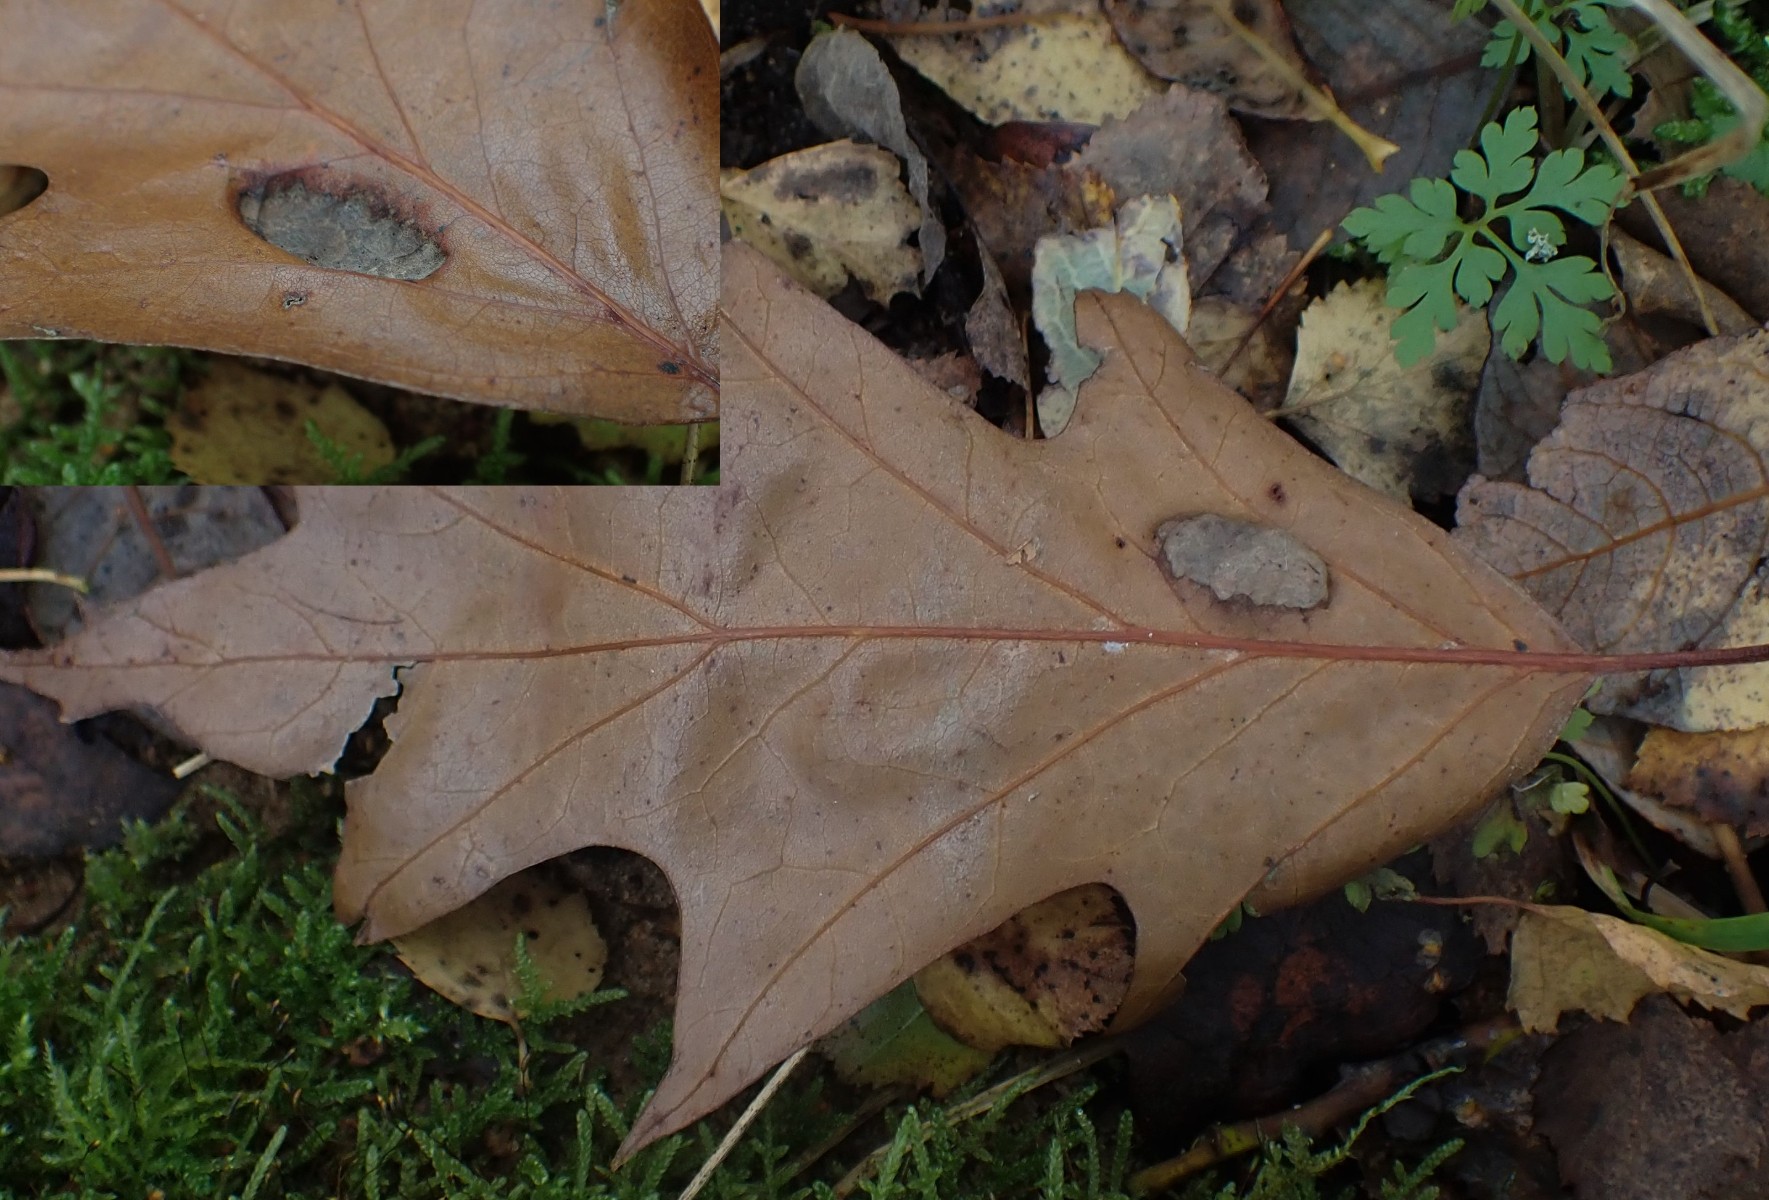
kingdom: Fungi
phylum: Ascomycota
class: Taphrinomycetes
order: Taphrinales
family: Taphrinaceae
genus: Taphrina
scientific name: Taphrina caerulescens
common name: Oak leaf blister
